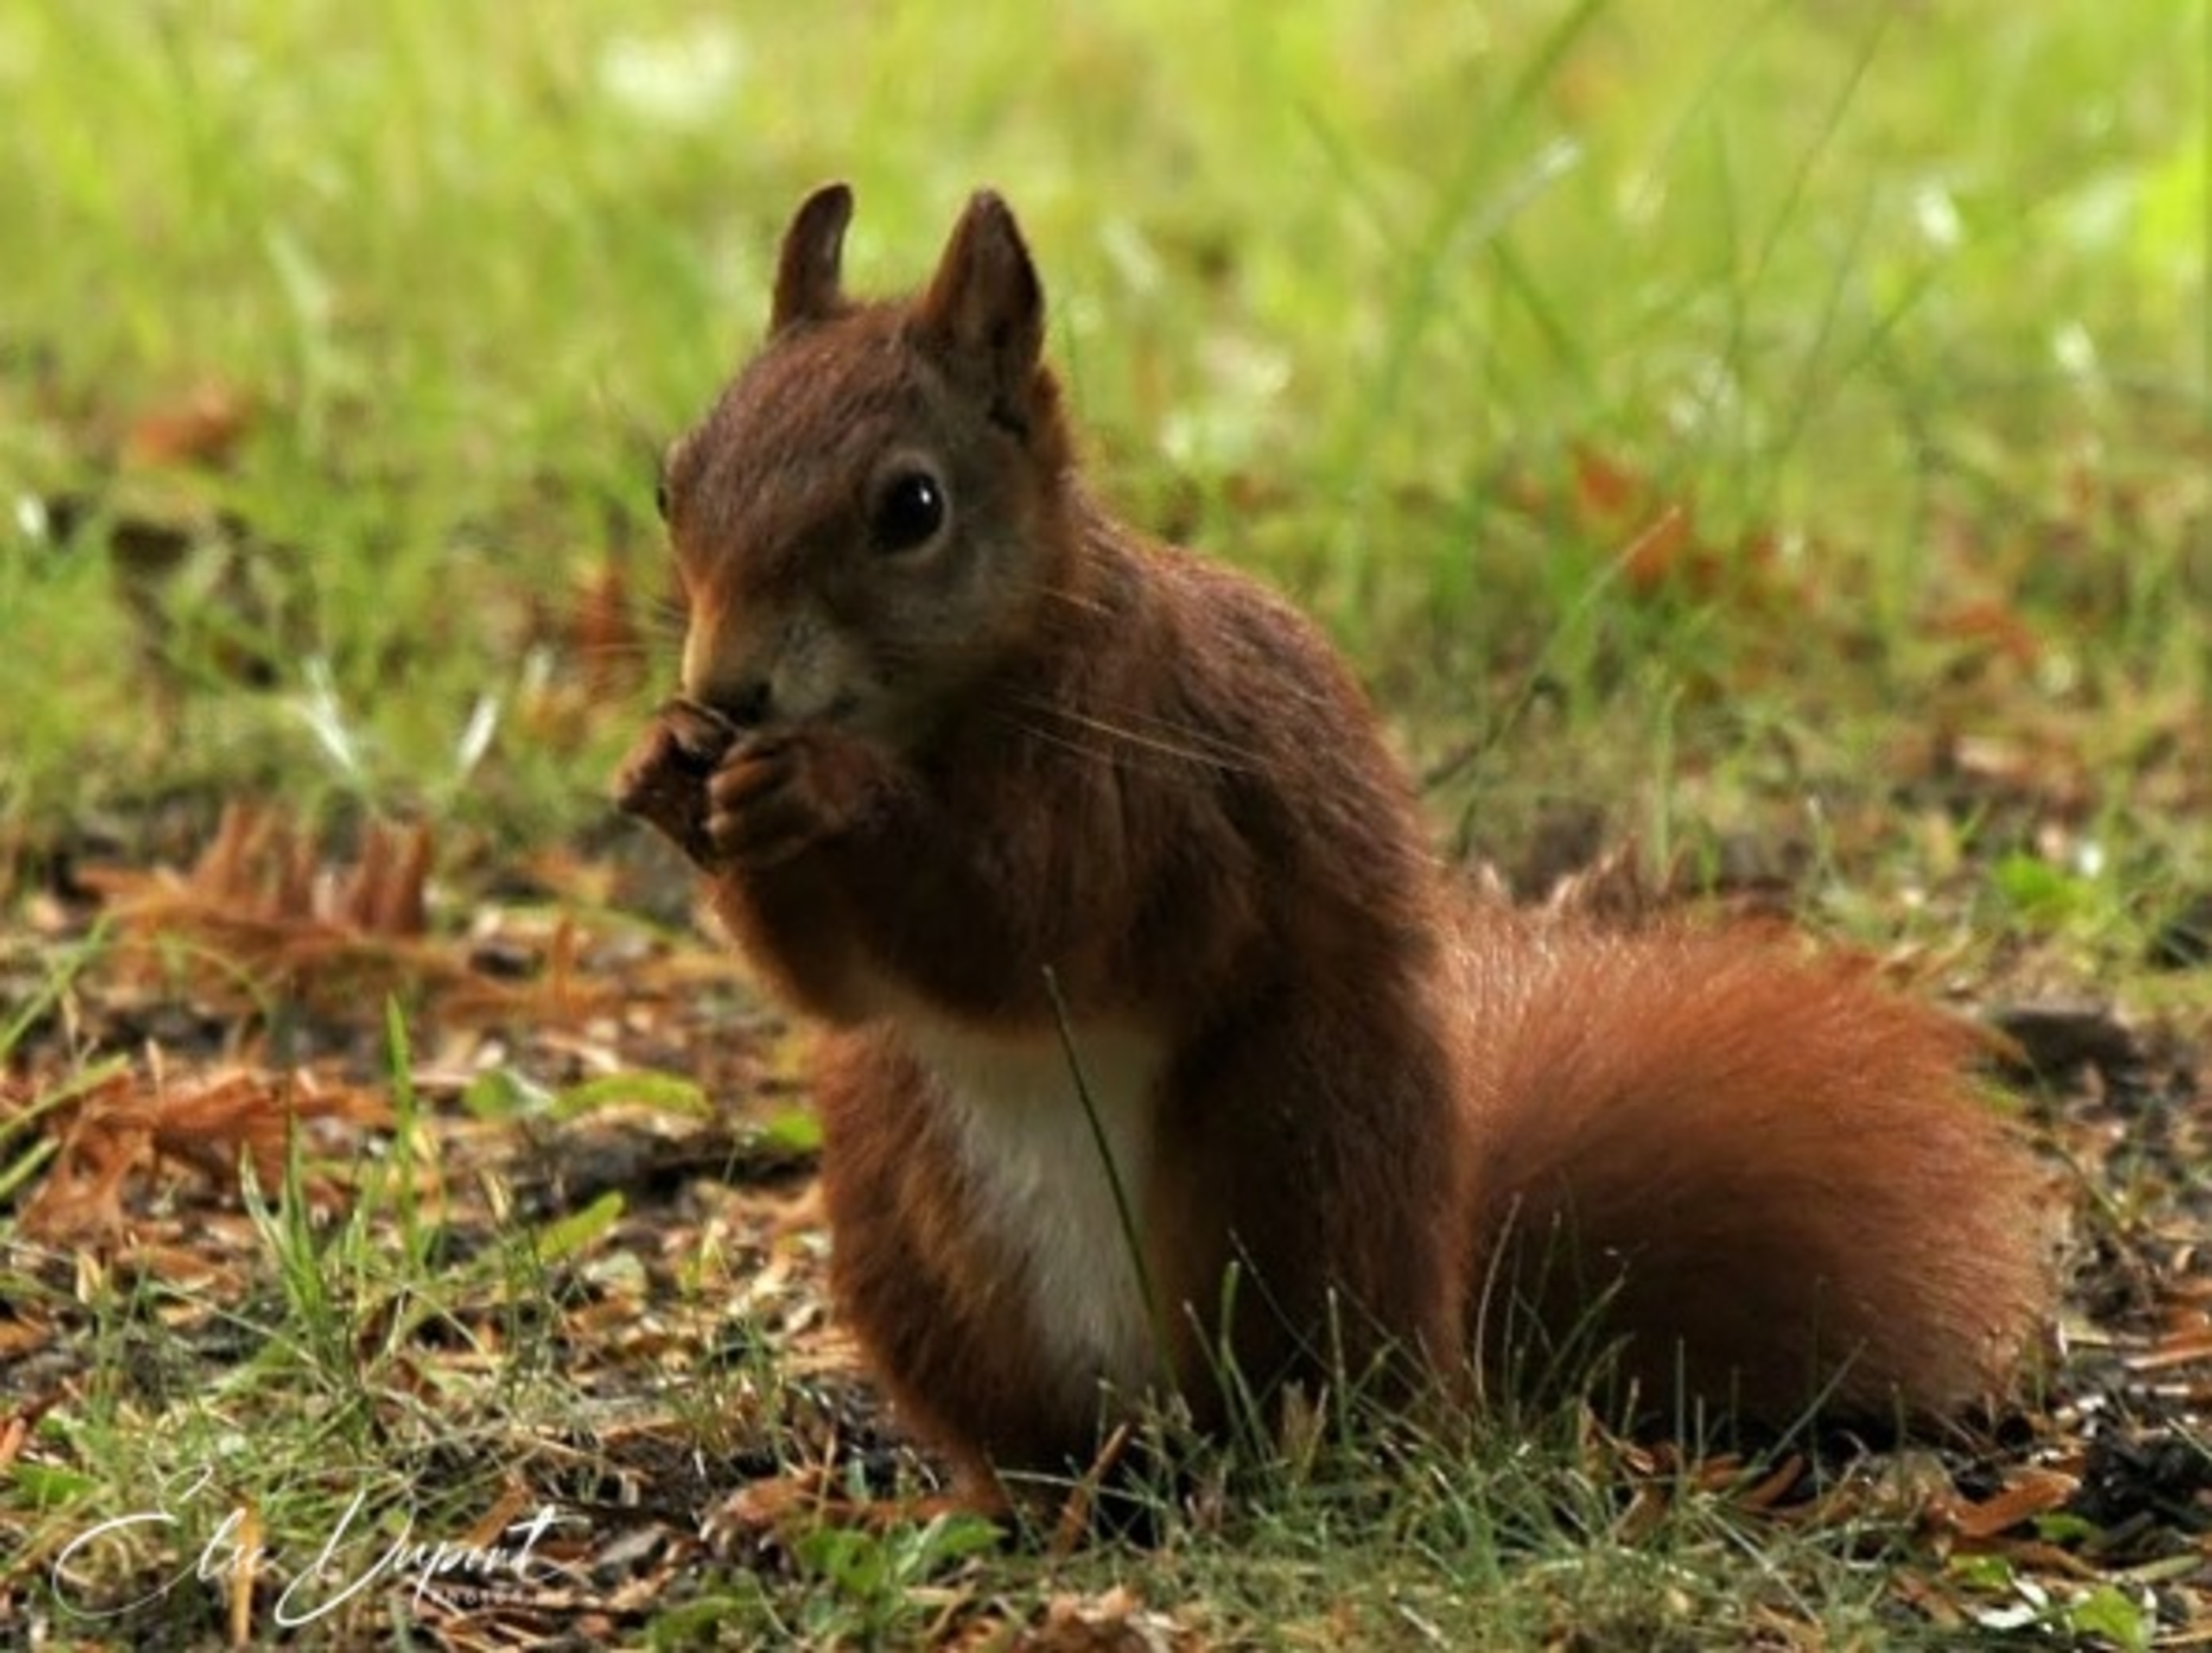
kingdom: Animalia
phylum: Chordata
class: Mammalia
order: Rodentia
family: Sciuridae
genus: Sciurus
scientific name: Sciurus vulgaris
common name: Egern
